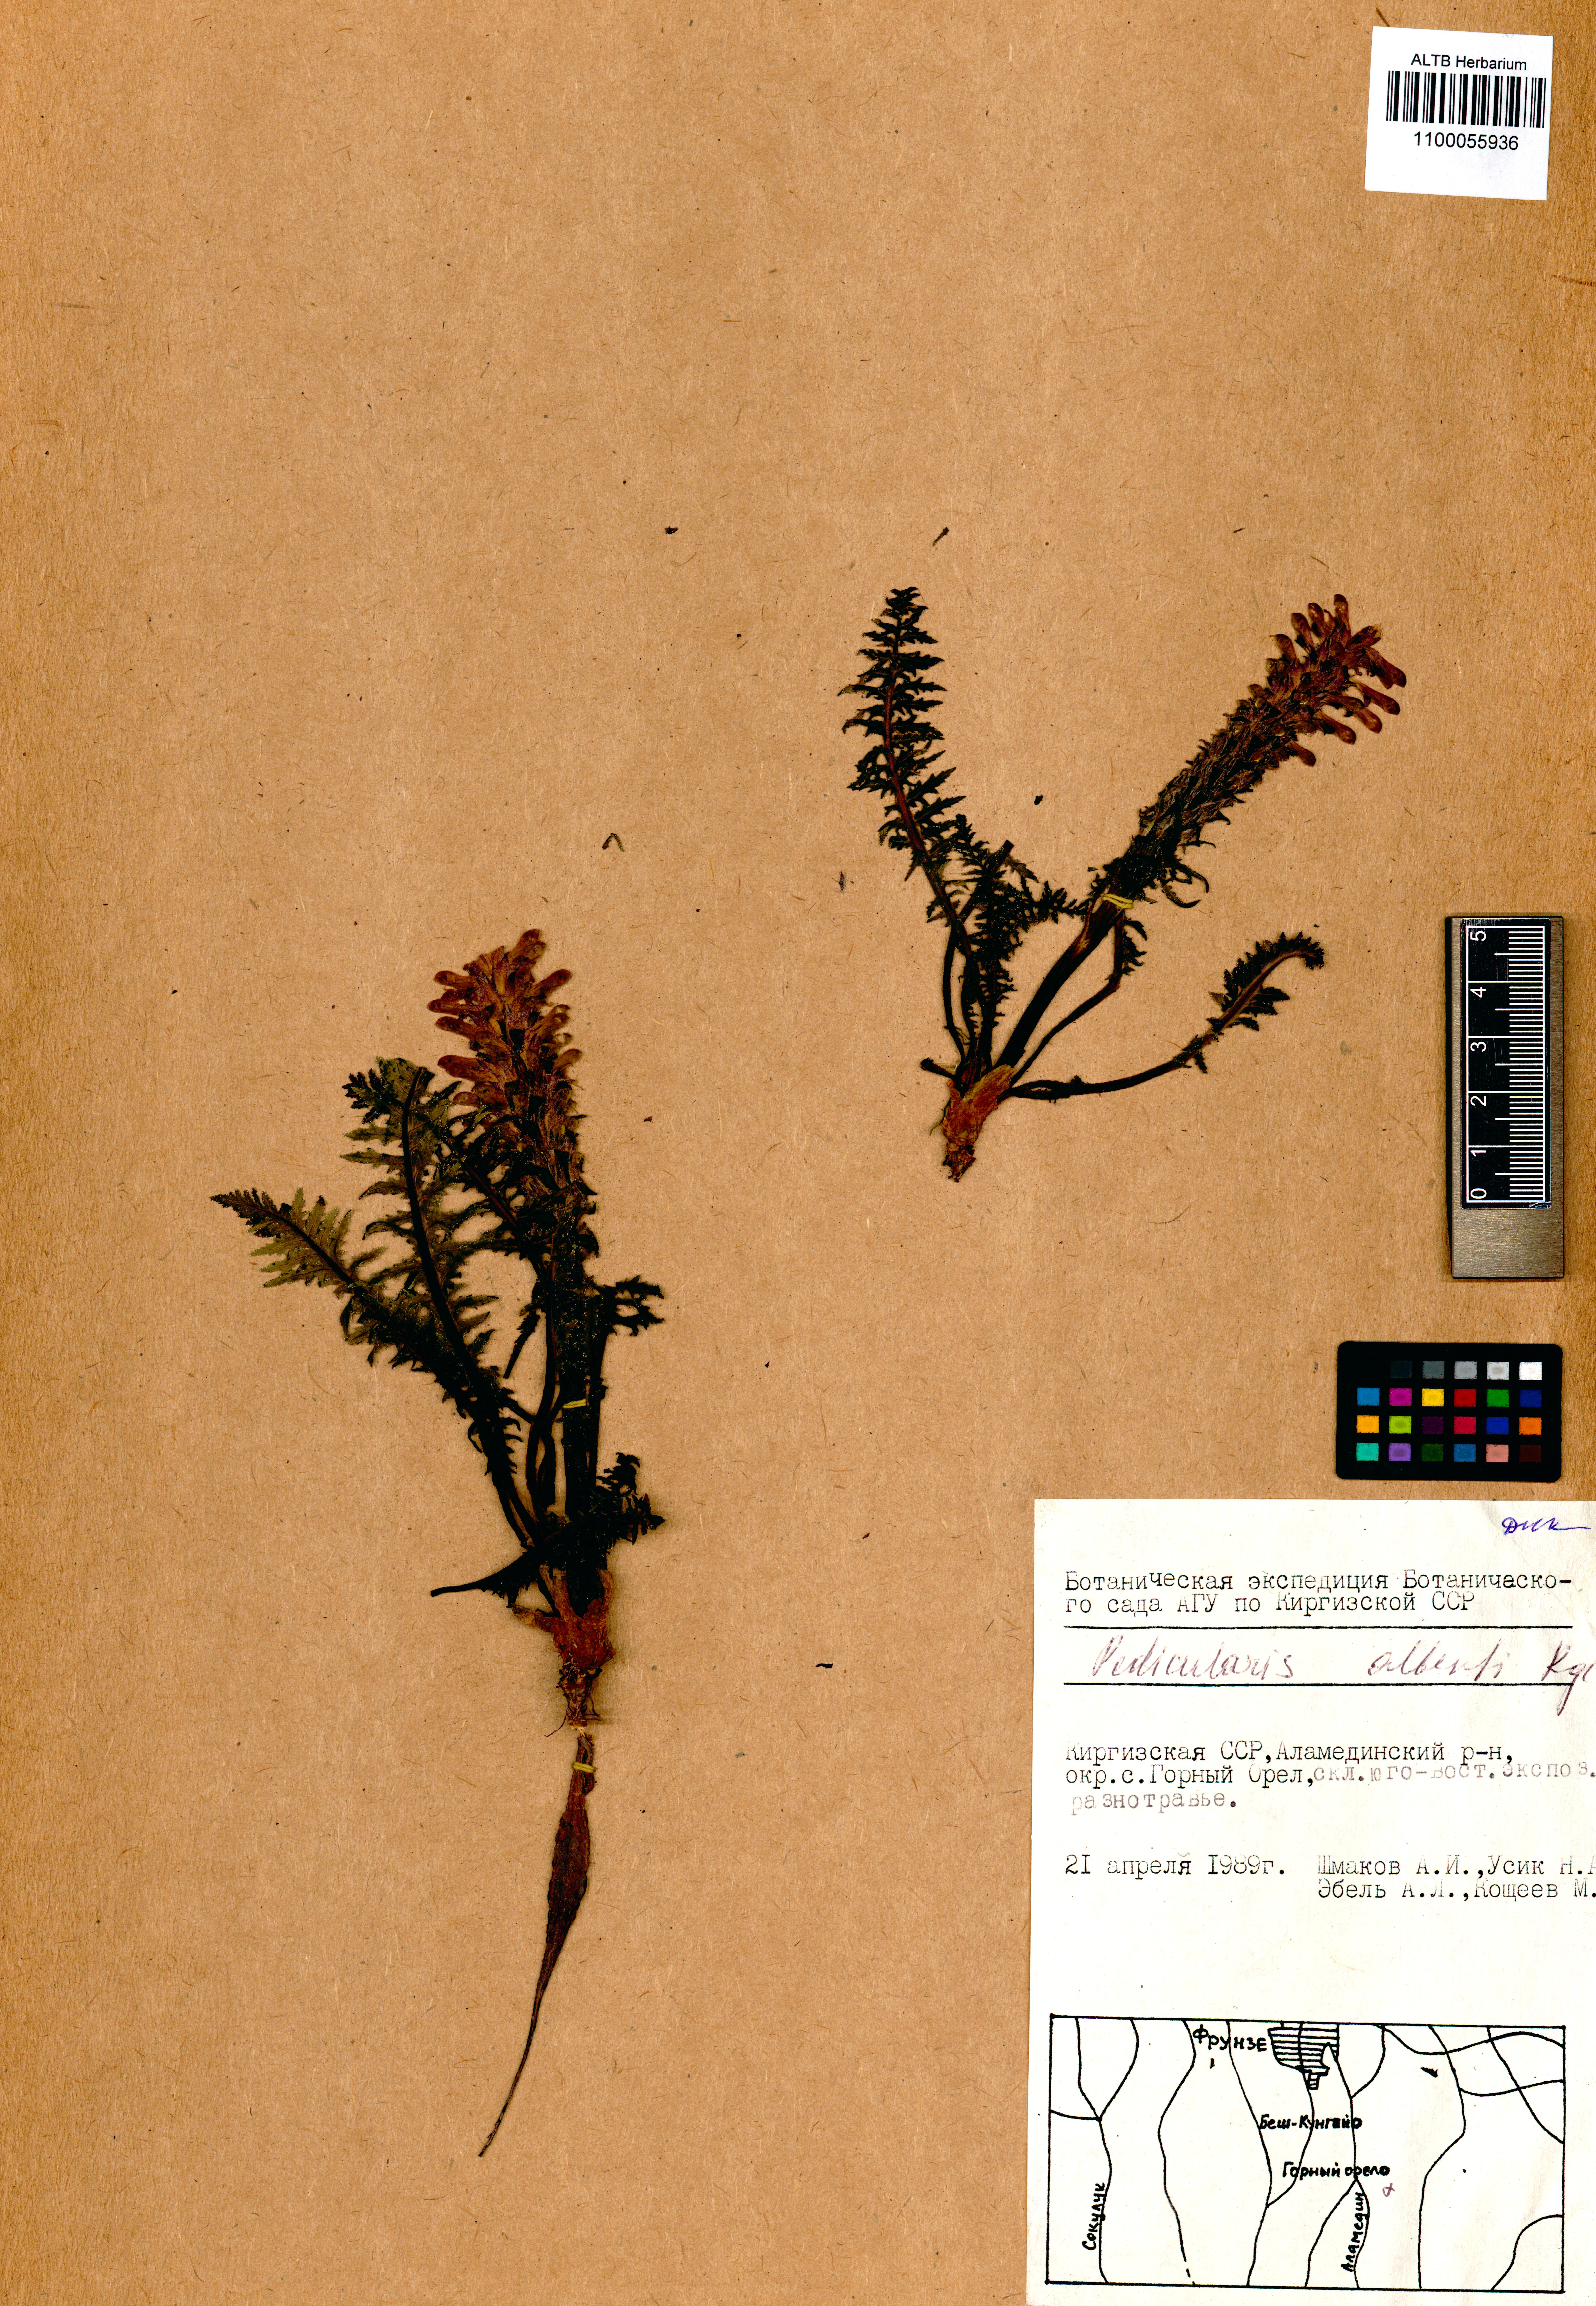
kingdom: Plantae
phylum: Tracheophyta
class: Magnoliopsida
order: Lamiales
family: Orobanchaceae
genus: Pedicularis
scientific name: Pedicularis alberti
